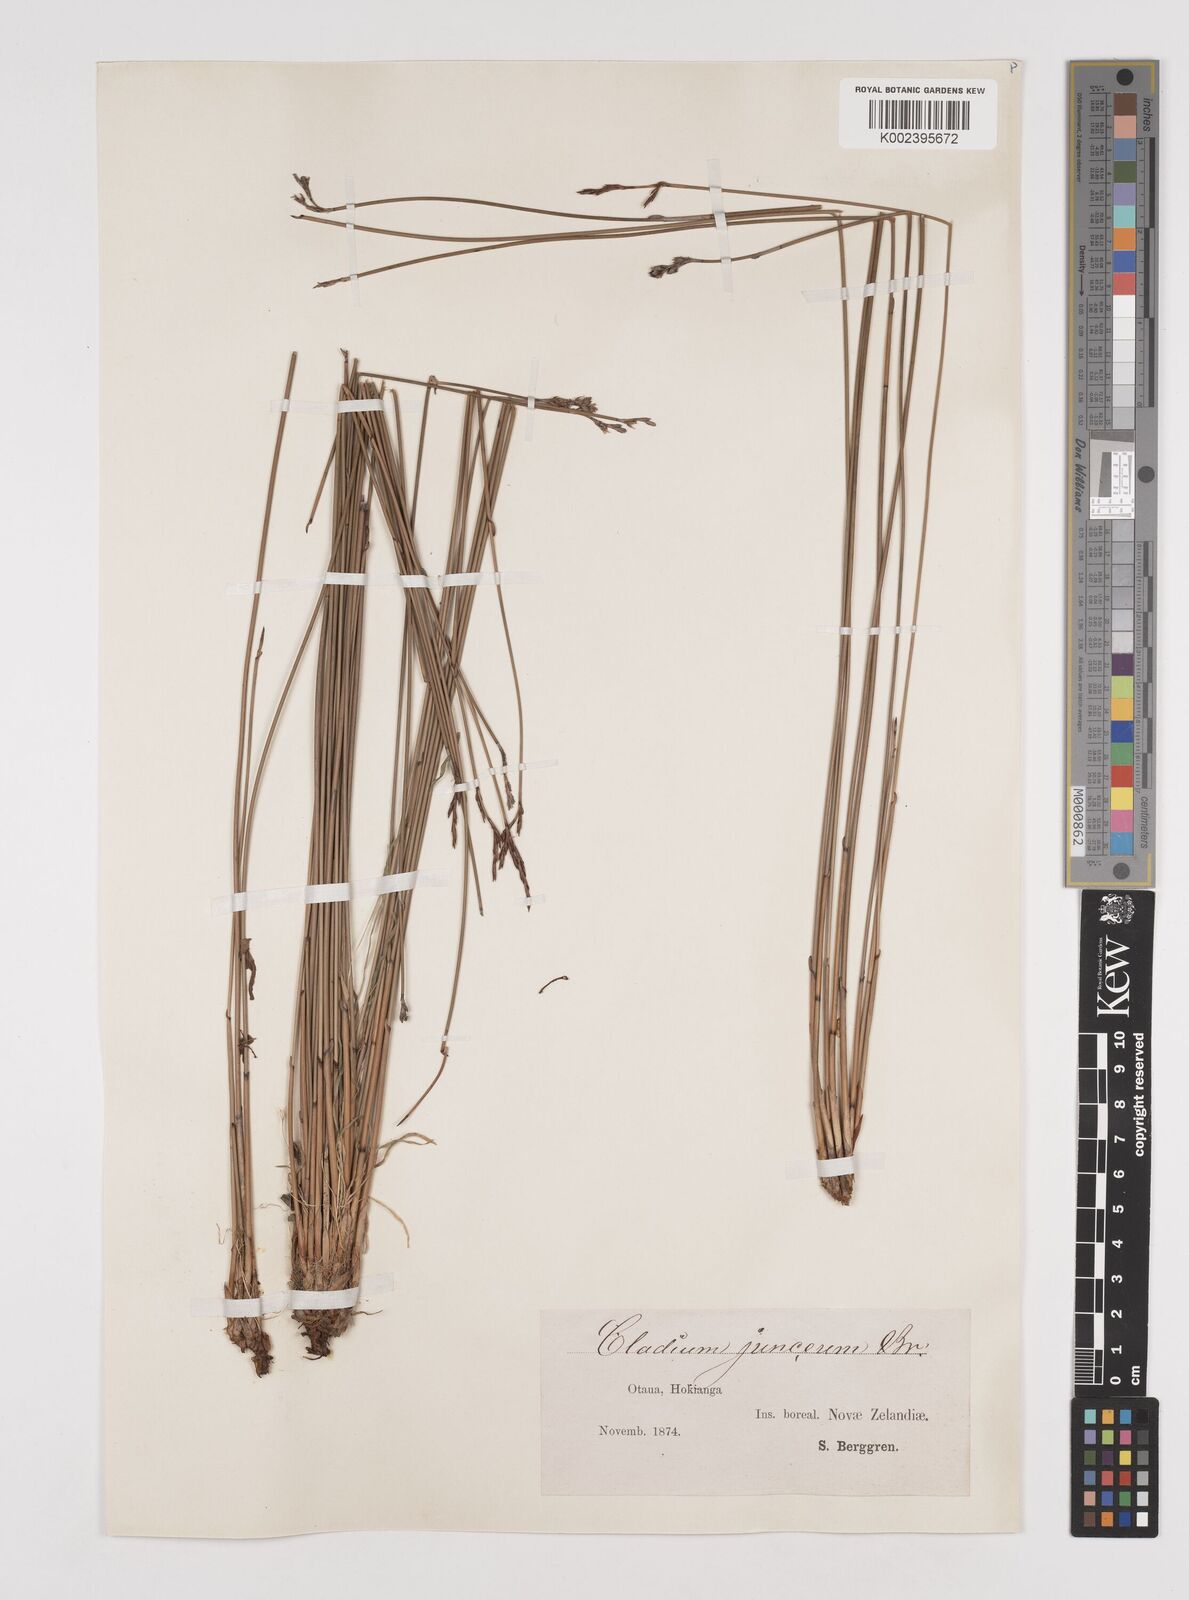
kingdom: Plantae
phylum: Tracheophyta
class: Liliopsida
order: Poales
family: Cyperaceae
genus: Machaerina
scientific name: Machaerina juncea
